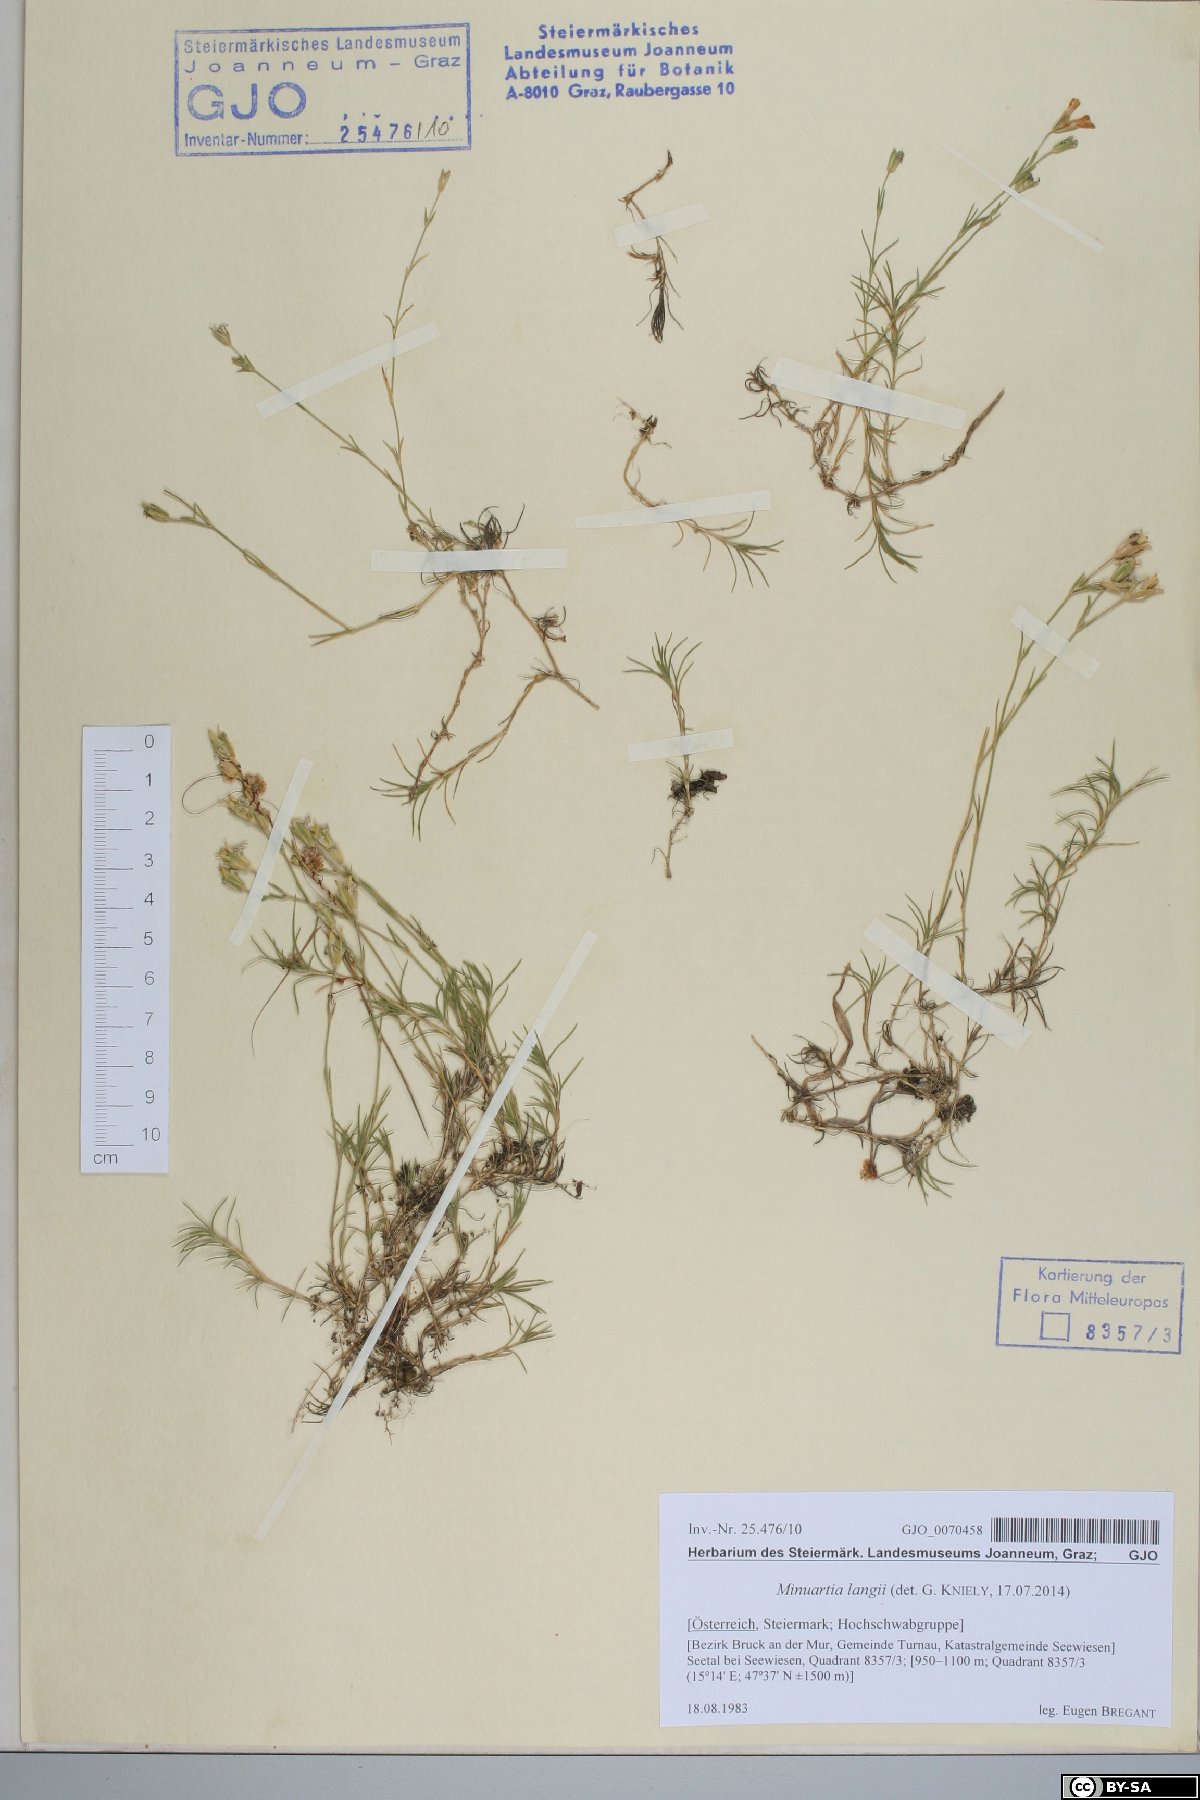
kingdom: Plantae
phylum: Tracheophyta
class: Magnoliopsida
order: Caryophyllales
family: Caryophyllaceae
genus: Cherleria
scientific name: Cherleria langii
